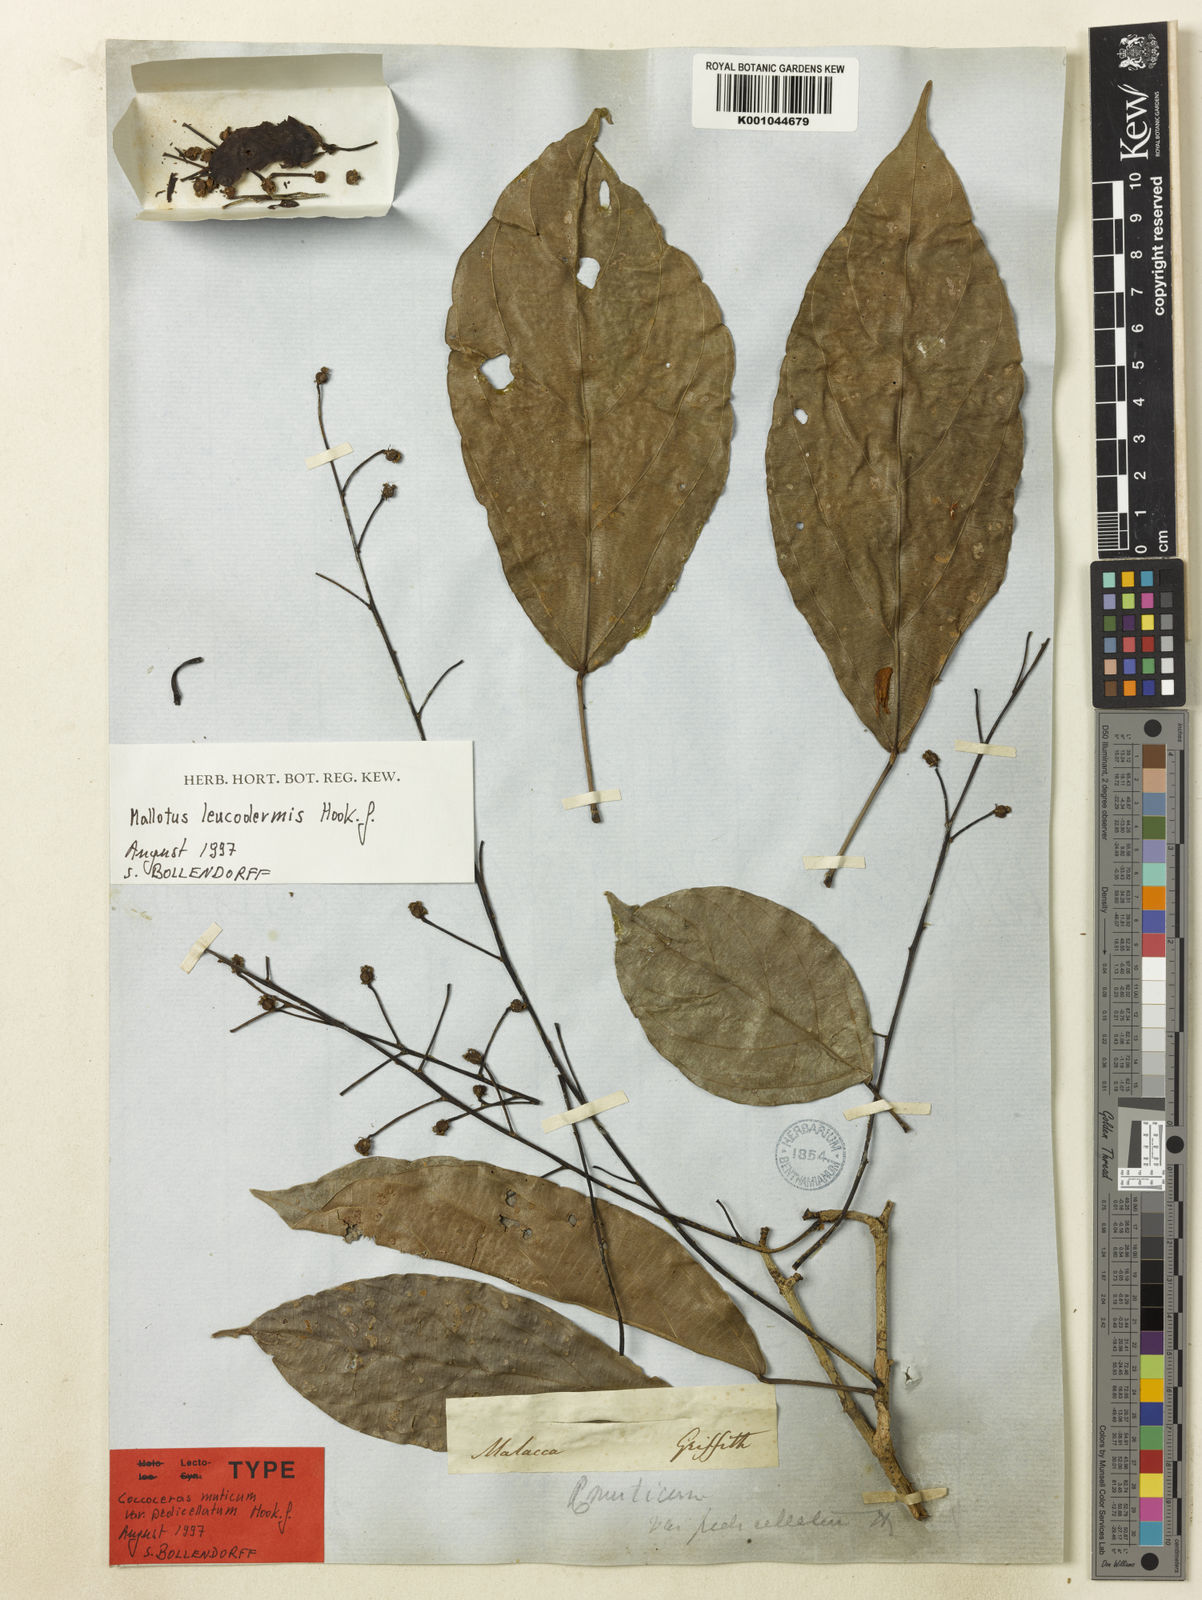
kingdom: Plantae
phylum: Tracheophyta
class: Magnoliopsida
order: Malpighiales
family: Euphorbiaceae
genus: Mallotus
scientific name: Mallotus leucodermis
